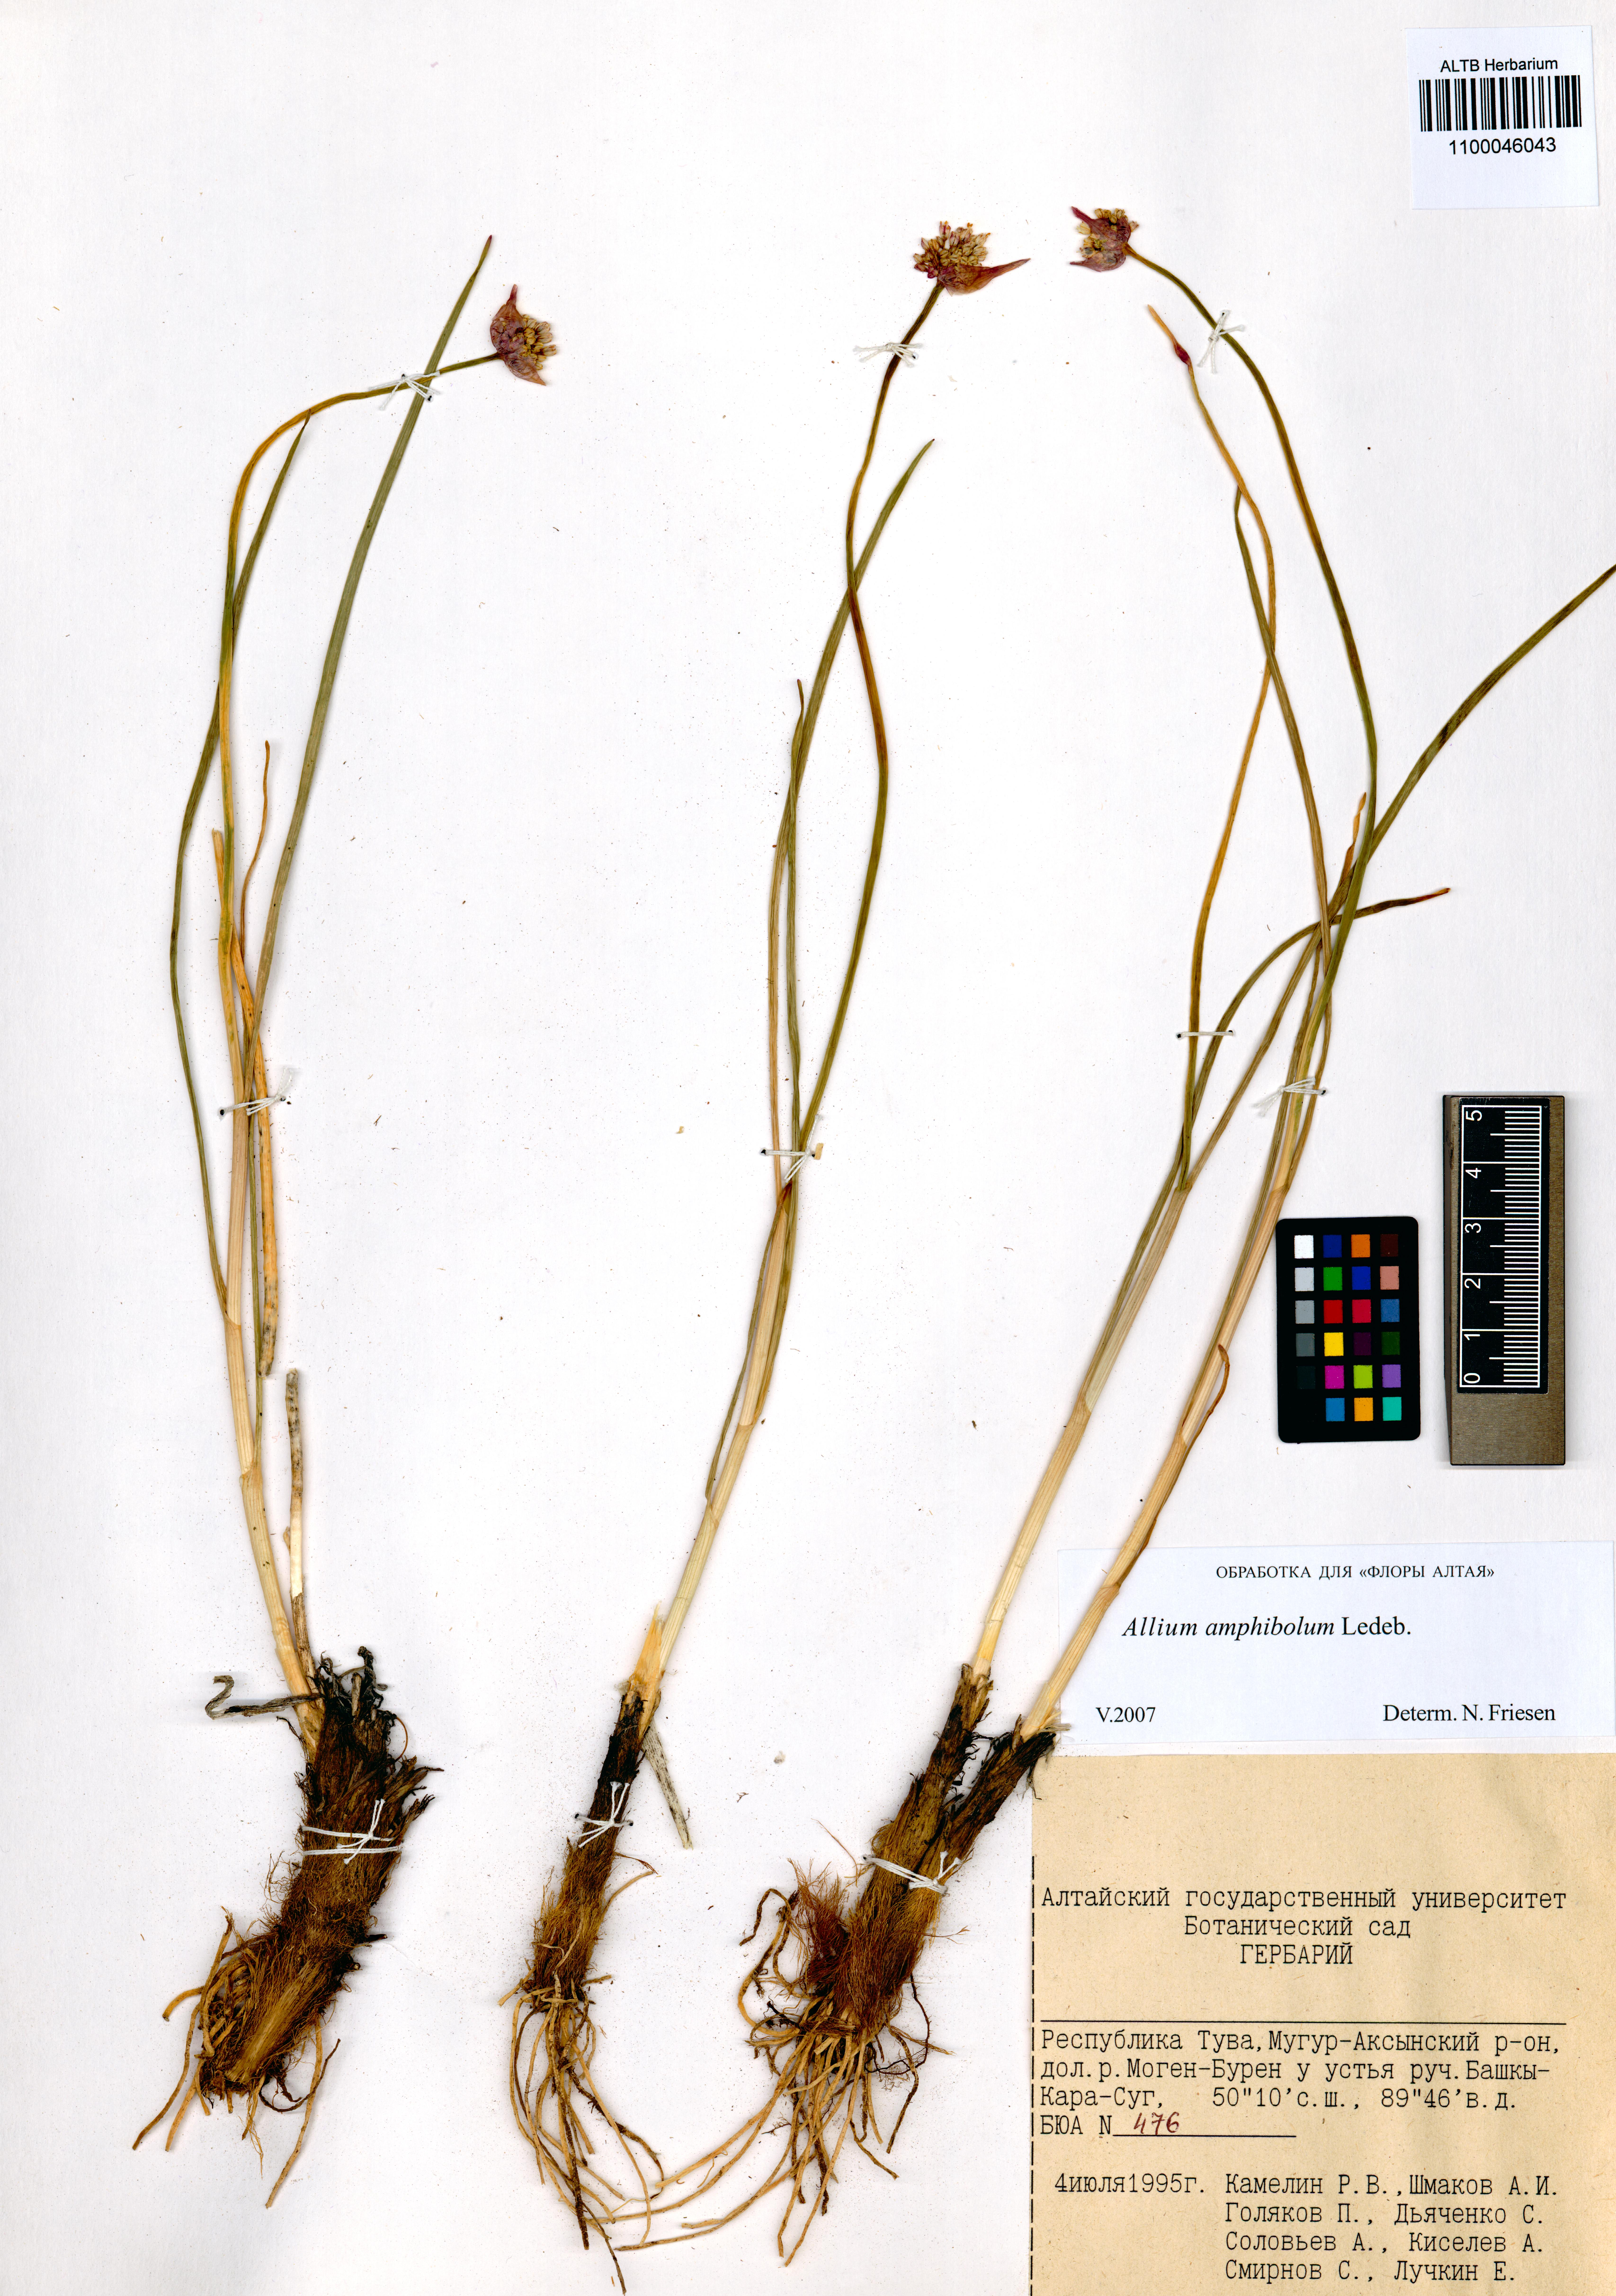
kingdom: Plantae
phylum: Tracheophyta
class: Liliopsida
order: Asparagales
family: Amaryllidaceae
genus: Allium
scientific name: Allium amphibolum
